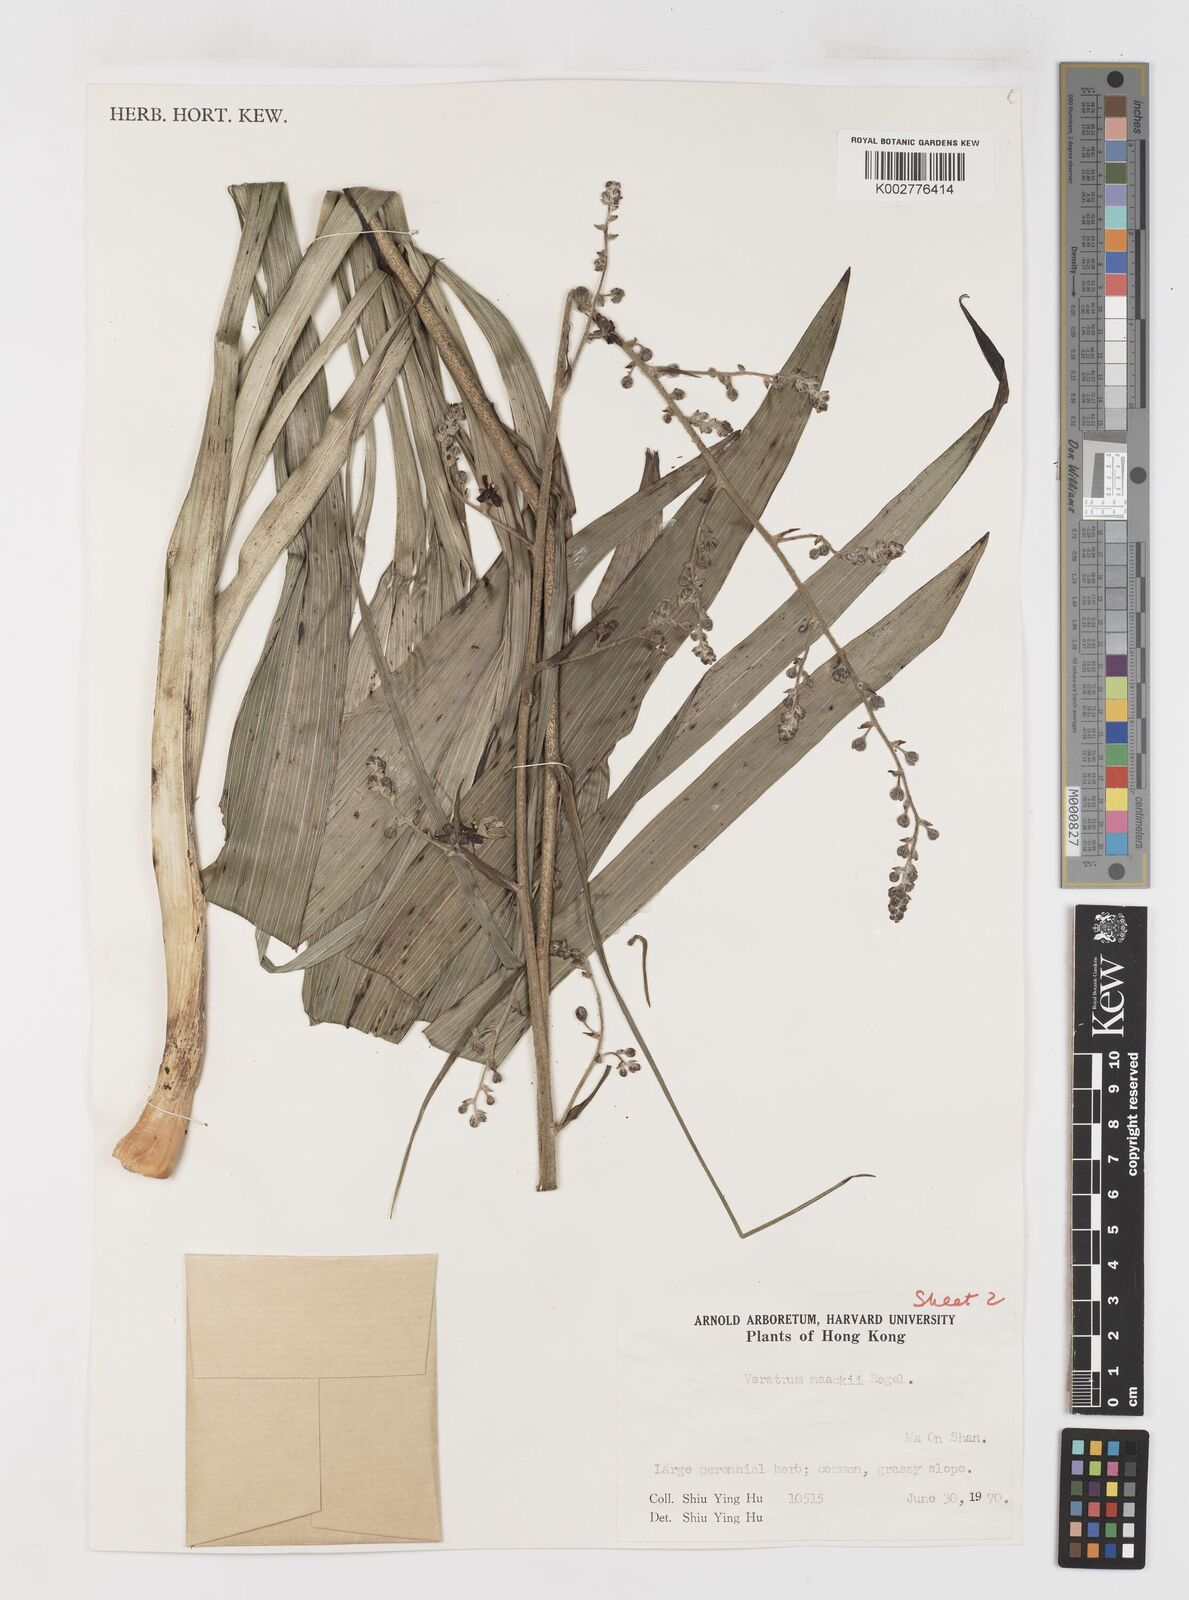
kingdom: Plantae
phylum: Tracheophyta
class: Liliopsida
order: Liliales
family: Melanthiaceae
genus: Veratrum
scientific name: Veratrum maackii
